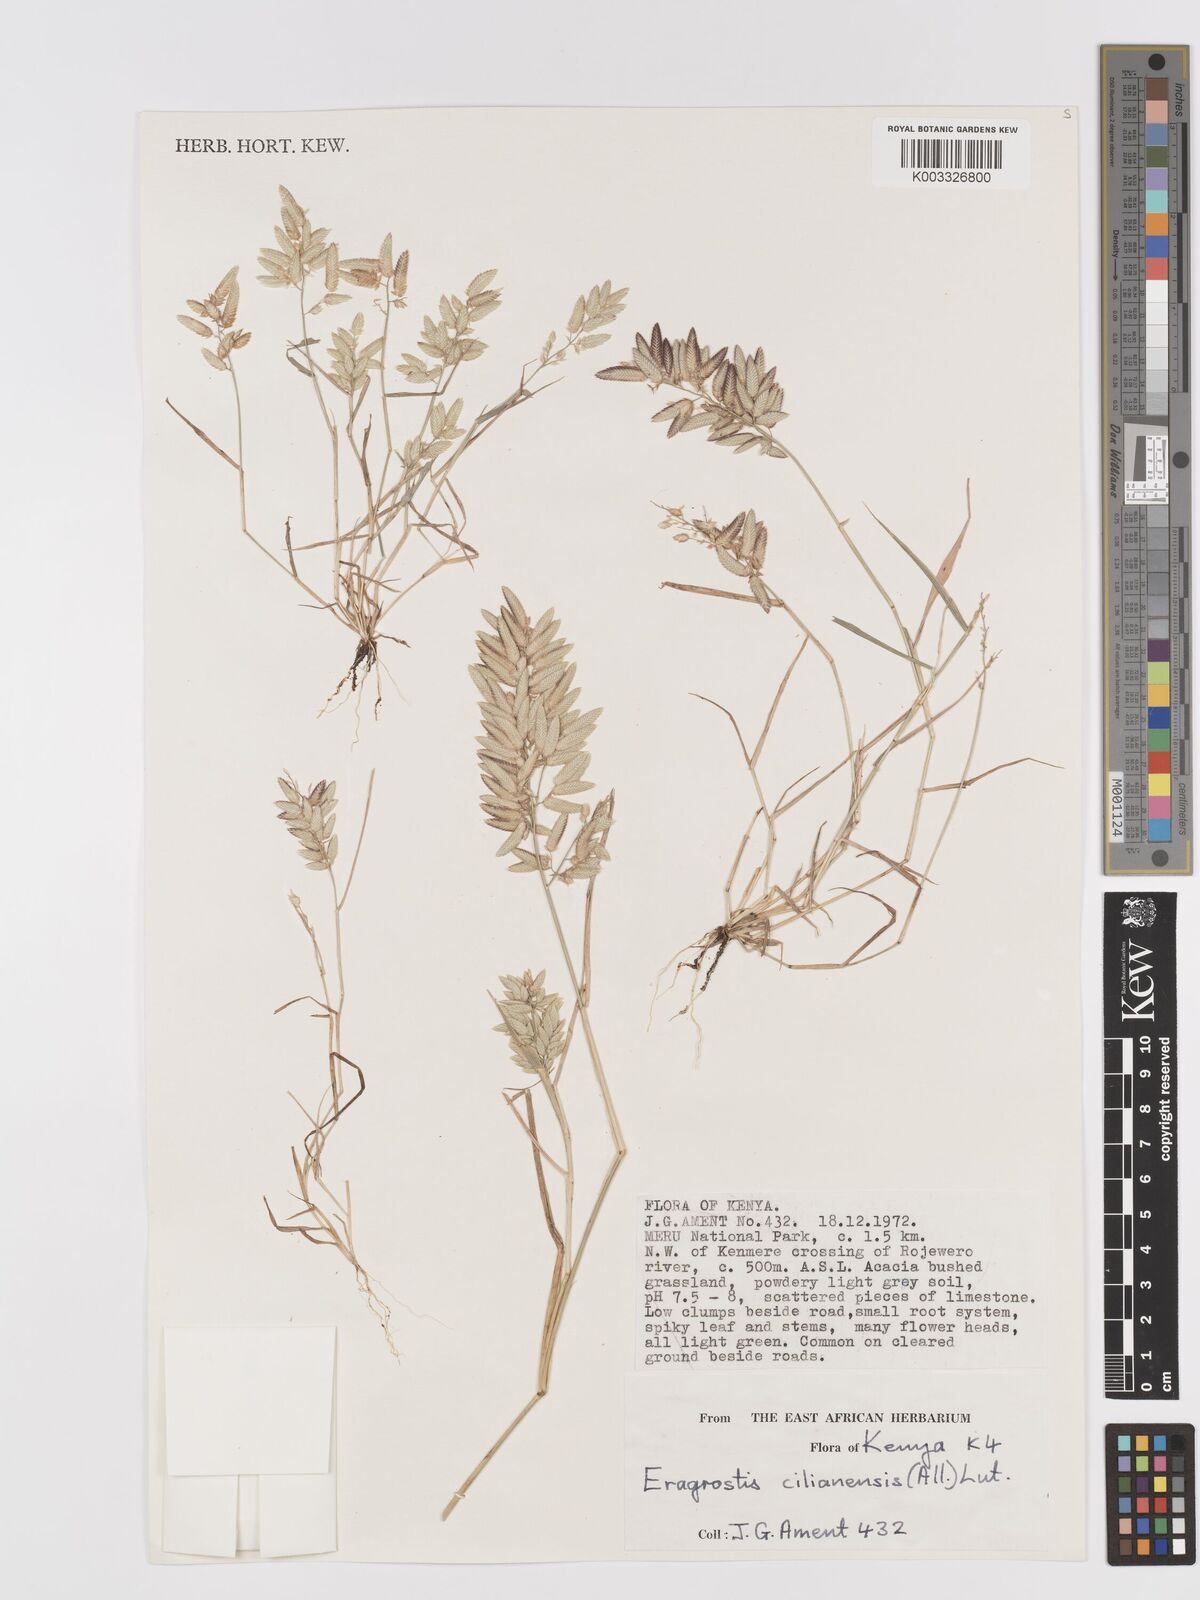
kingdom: Plantae
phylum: Tracheophyta
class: Liliopsida
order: Poales
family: Poaceae
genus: Eragrostis
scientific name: Eragrostis cilianensis
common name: Stinkgrass
